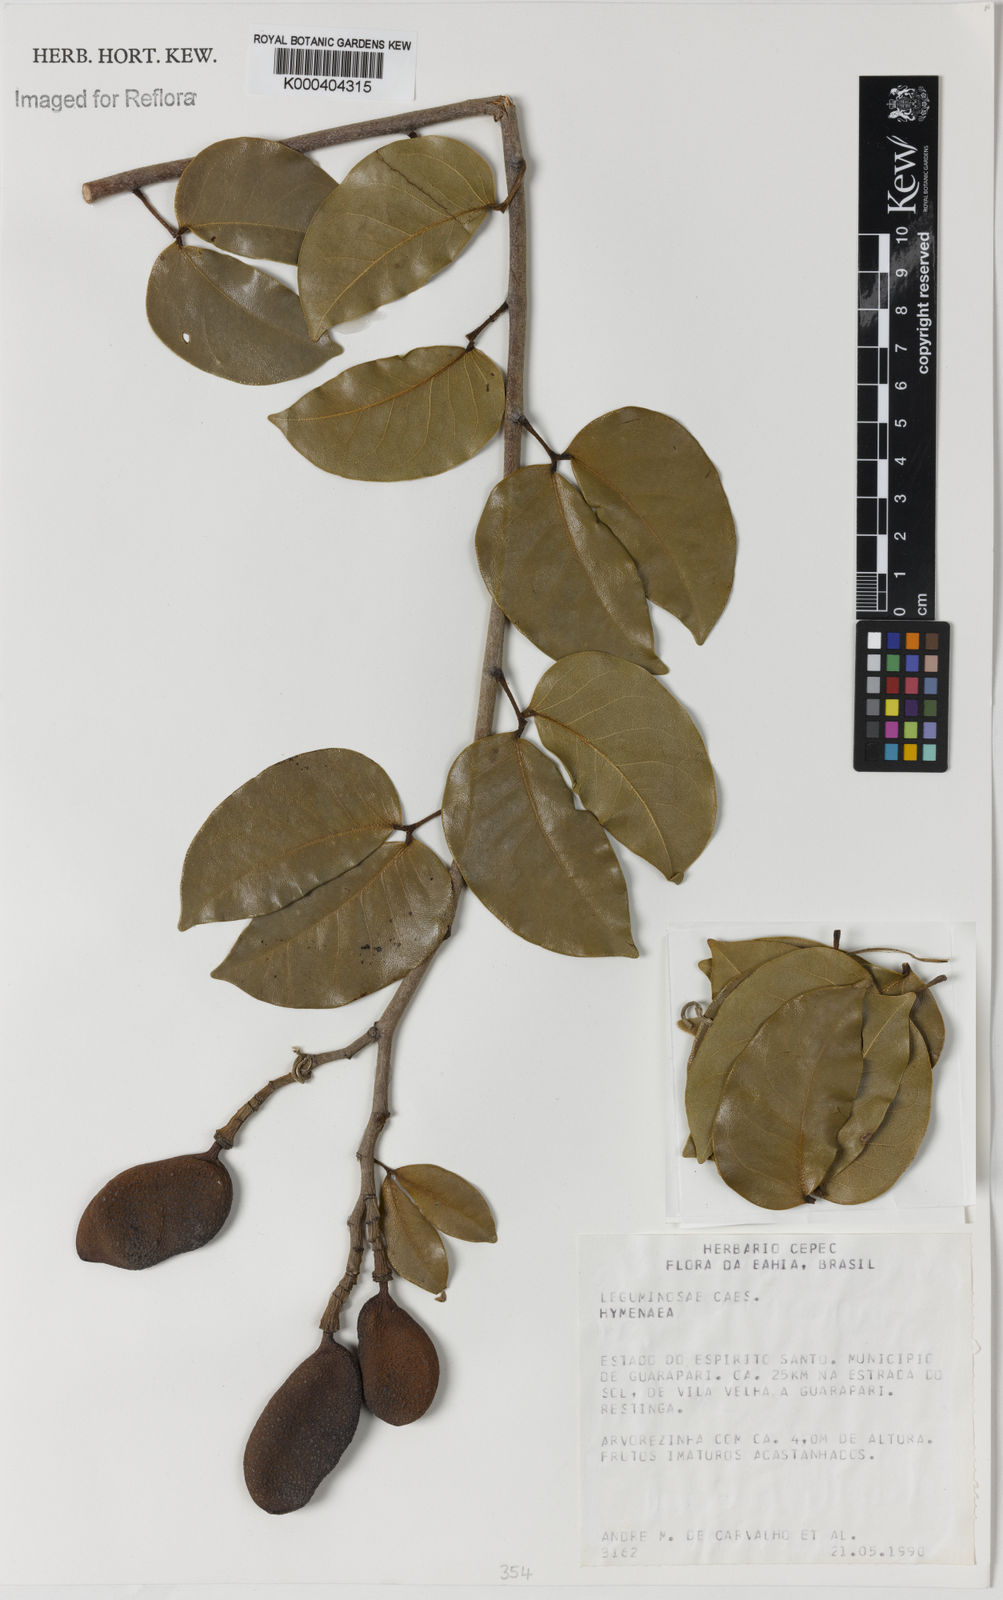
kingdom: Plantae
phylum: Tracheophyta
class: Magnoliopsida
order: Fabales
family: Fabaceae
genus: Hymenaea
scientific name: Hymenaea
